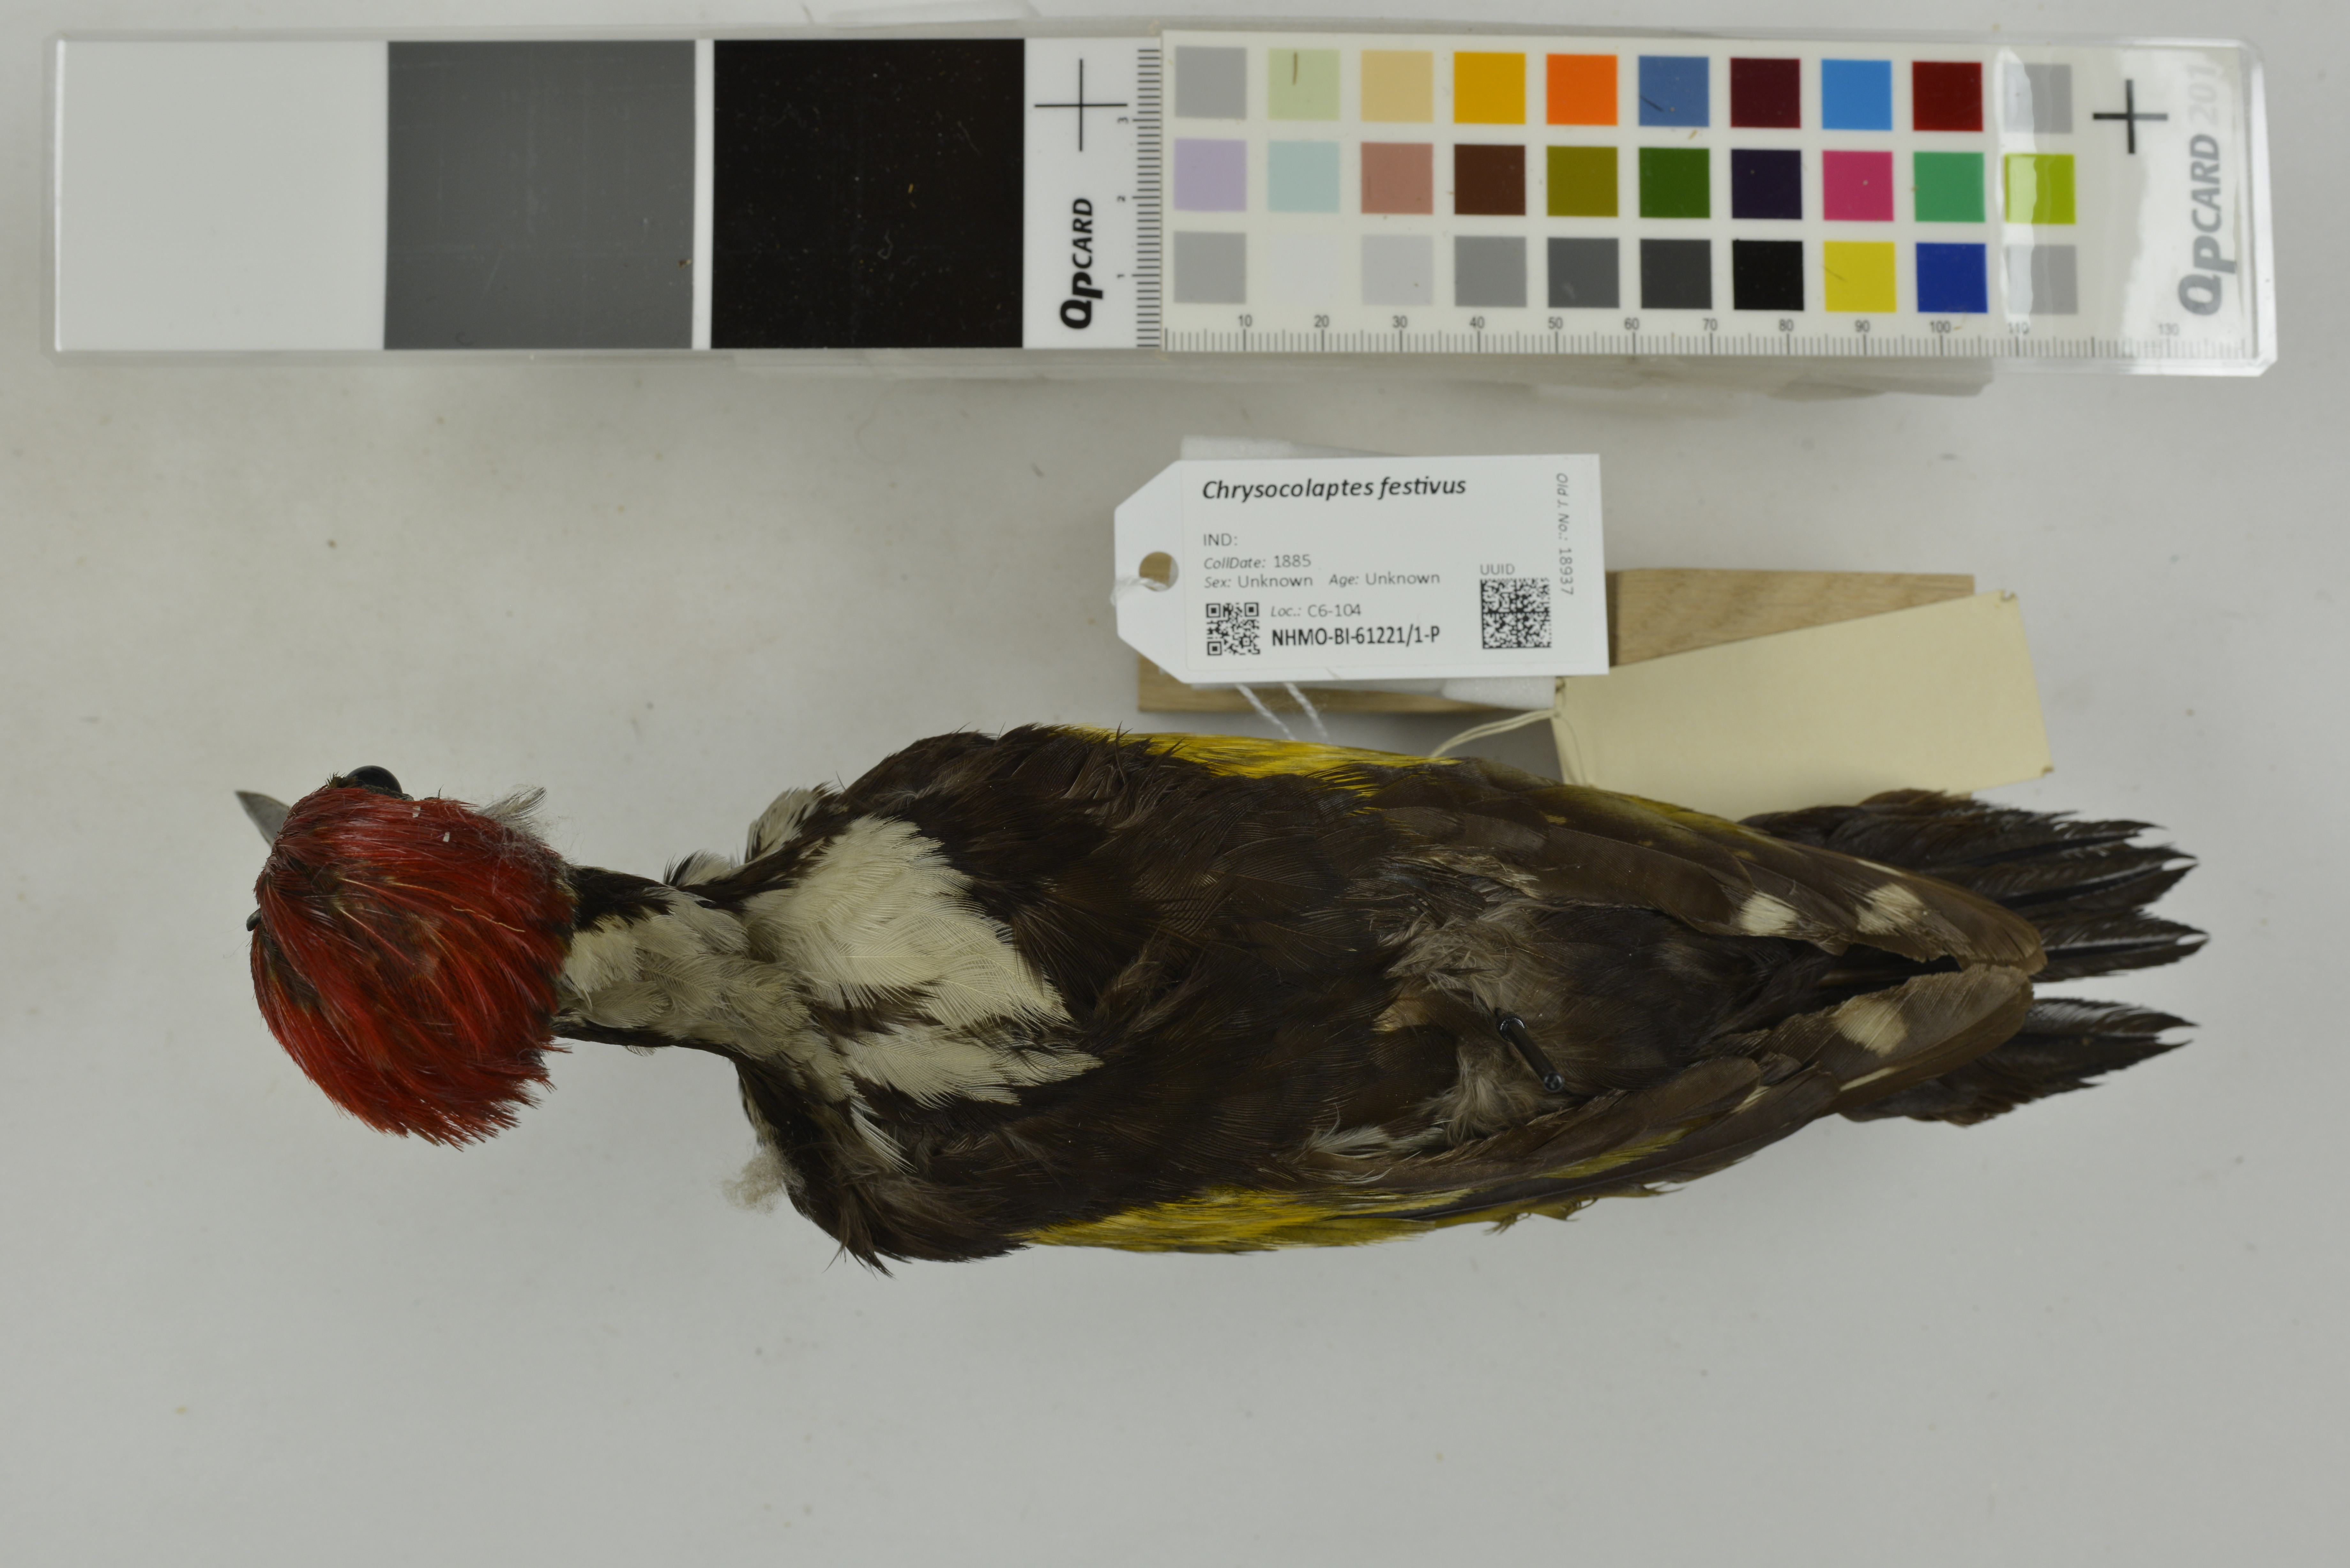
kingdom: Animalia
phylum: Chordata
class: Aves
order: Piciformes
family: Picidae
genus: Chrysocolaptes
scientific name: Chrysocolaptes festivus
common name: White-naped woodpecker
